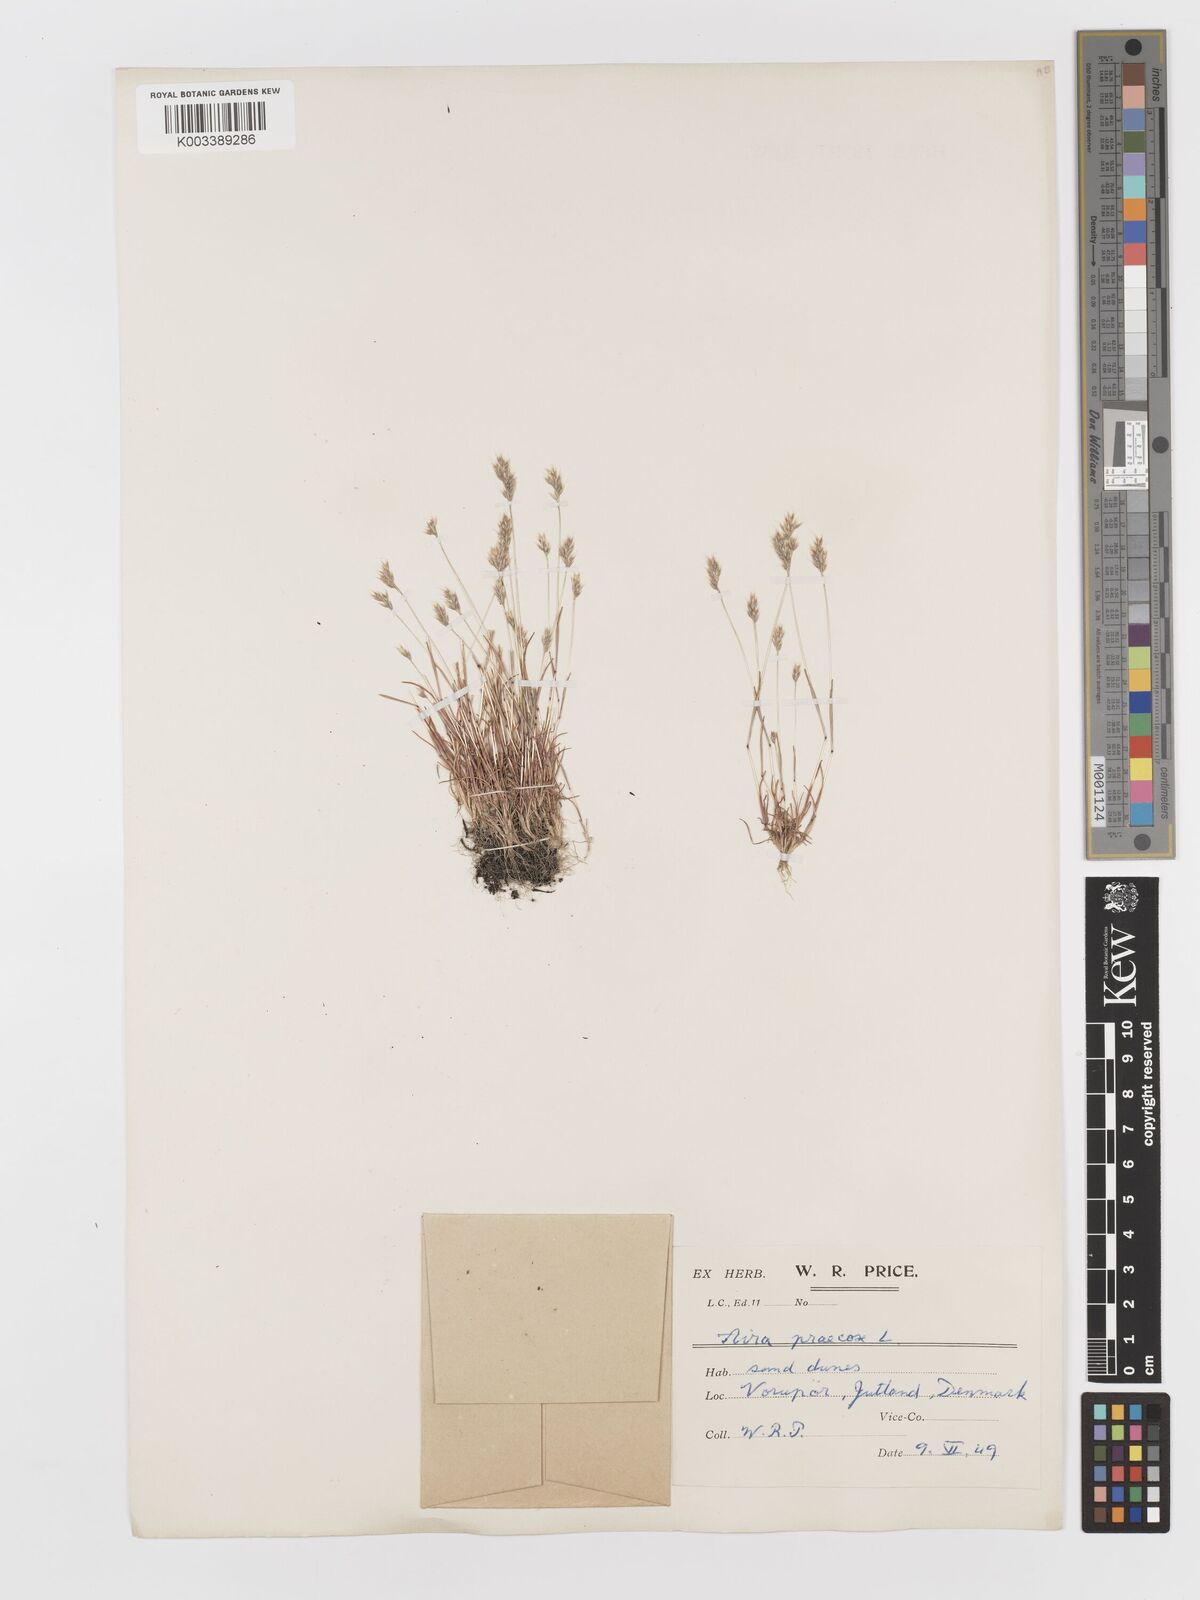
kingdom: Plantae
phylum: Tracheophyta
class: Liliopsida
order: Poales
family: Poaceae
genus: Aira
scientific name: Aira praecox
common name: Early hair-grass
